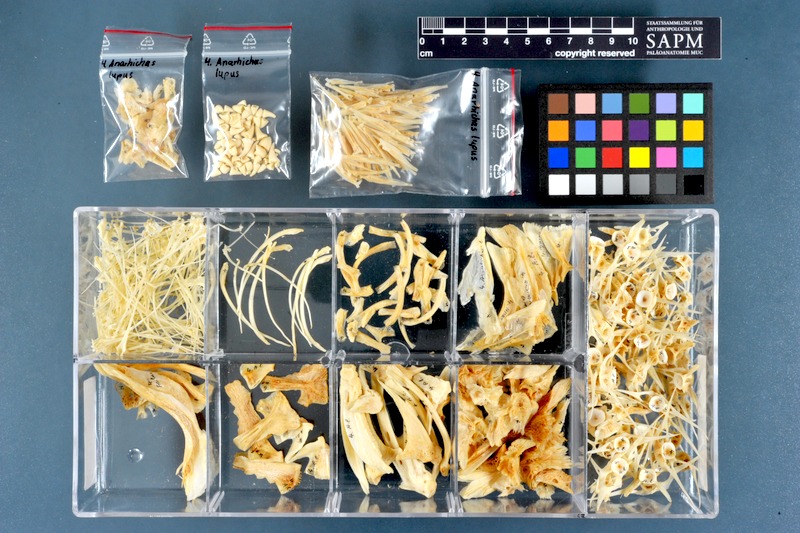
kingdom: Animalia
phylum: Chordata
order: Perciformes
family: Anarhichadidae
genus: Anarhichas
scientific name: Anarhichas lupus
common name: Wolf-fish
